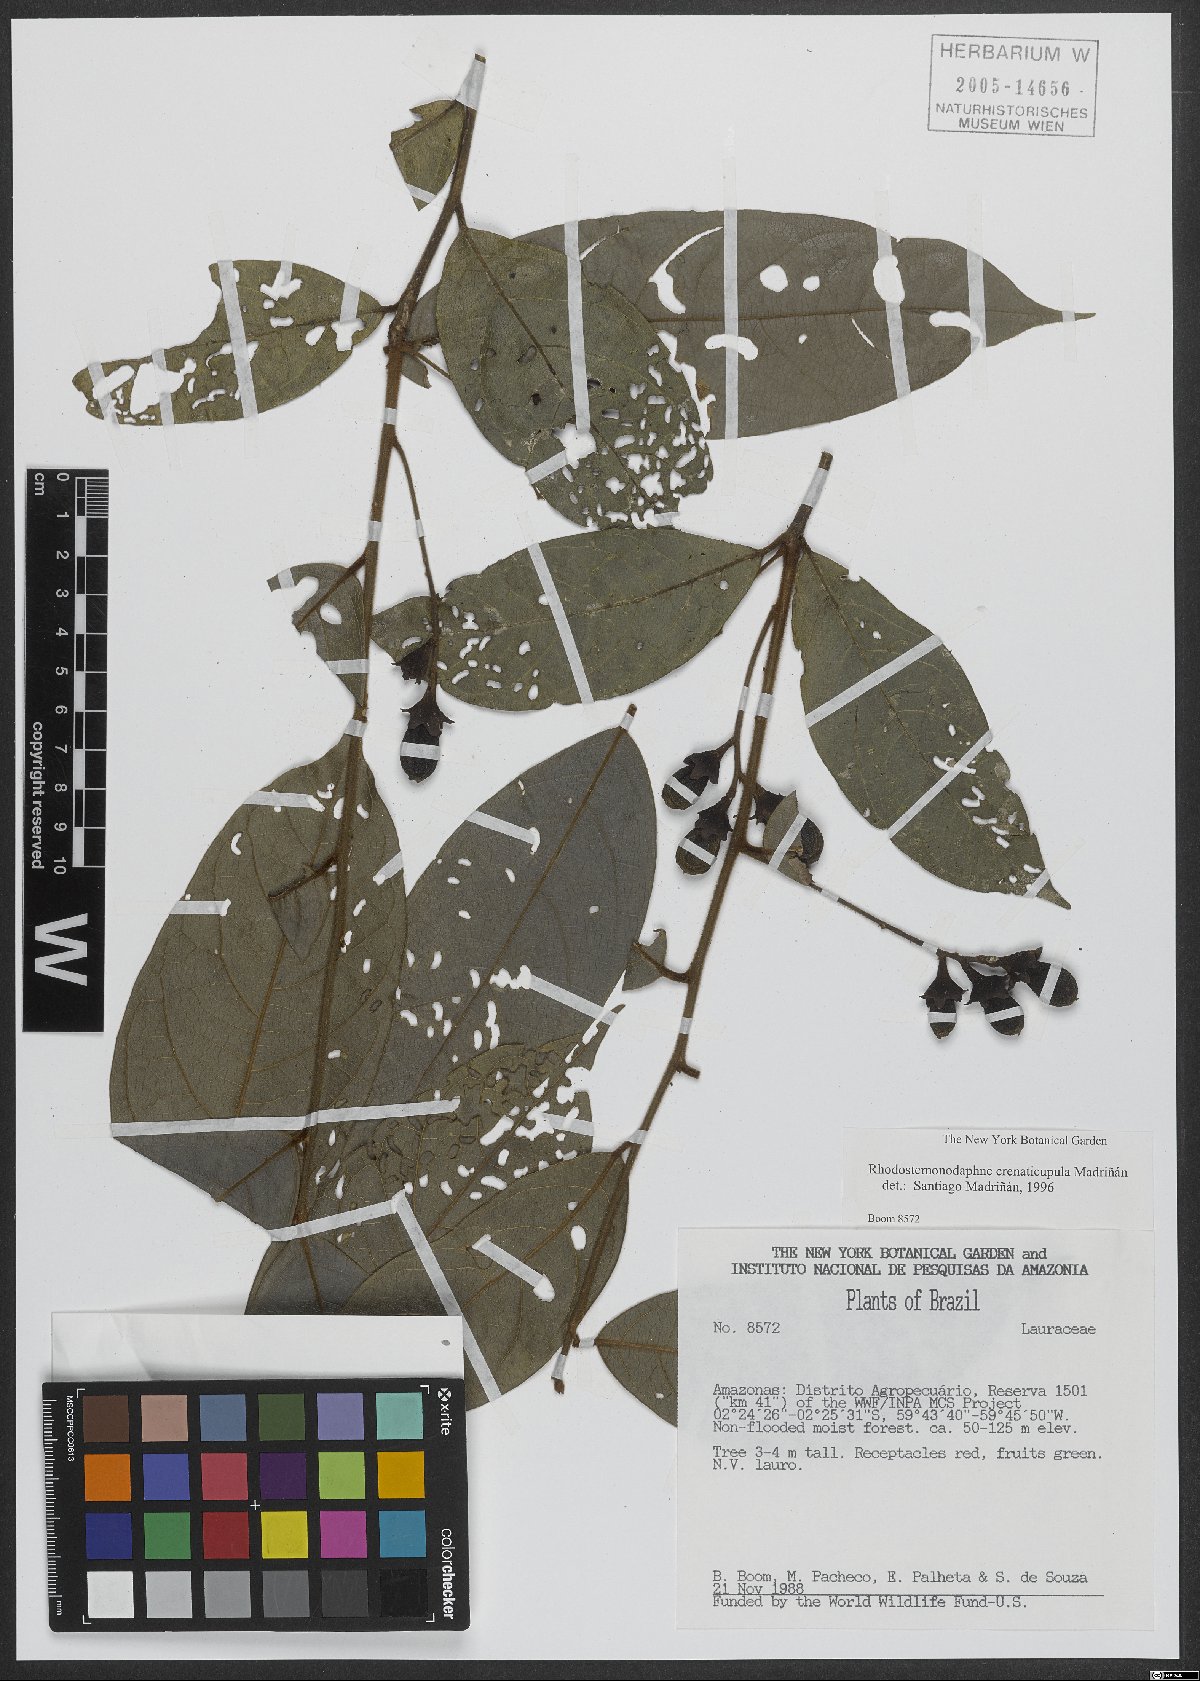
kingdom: Plantae
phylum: Tracheophyta
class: Magnoliopsida
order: Laurales
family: Lauraceae
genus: Rhodostemonodaphne
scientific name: Rhodostemonodaphne crenaticupula
